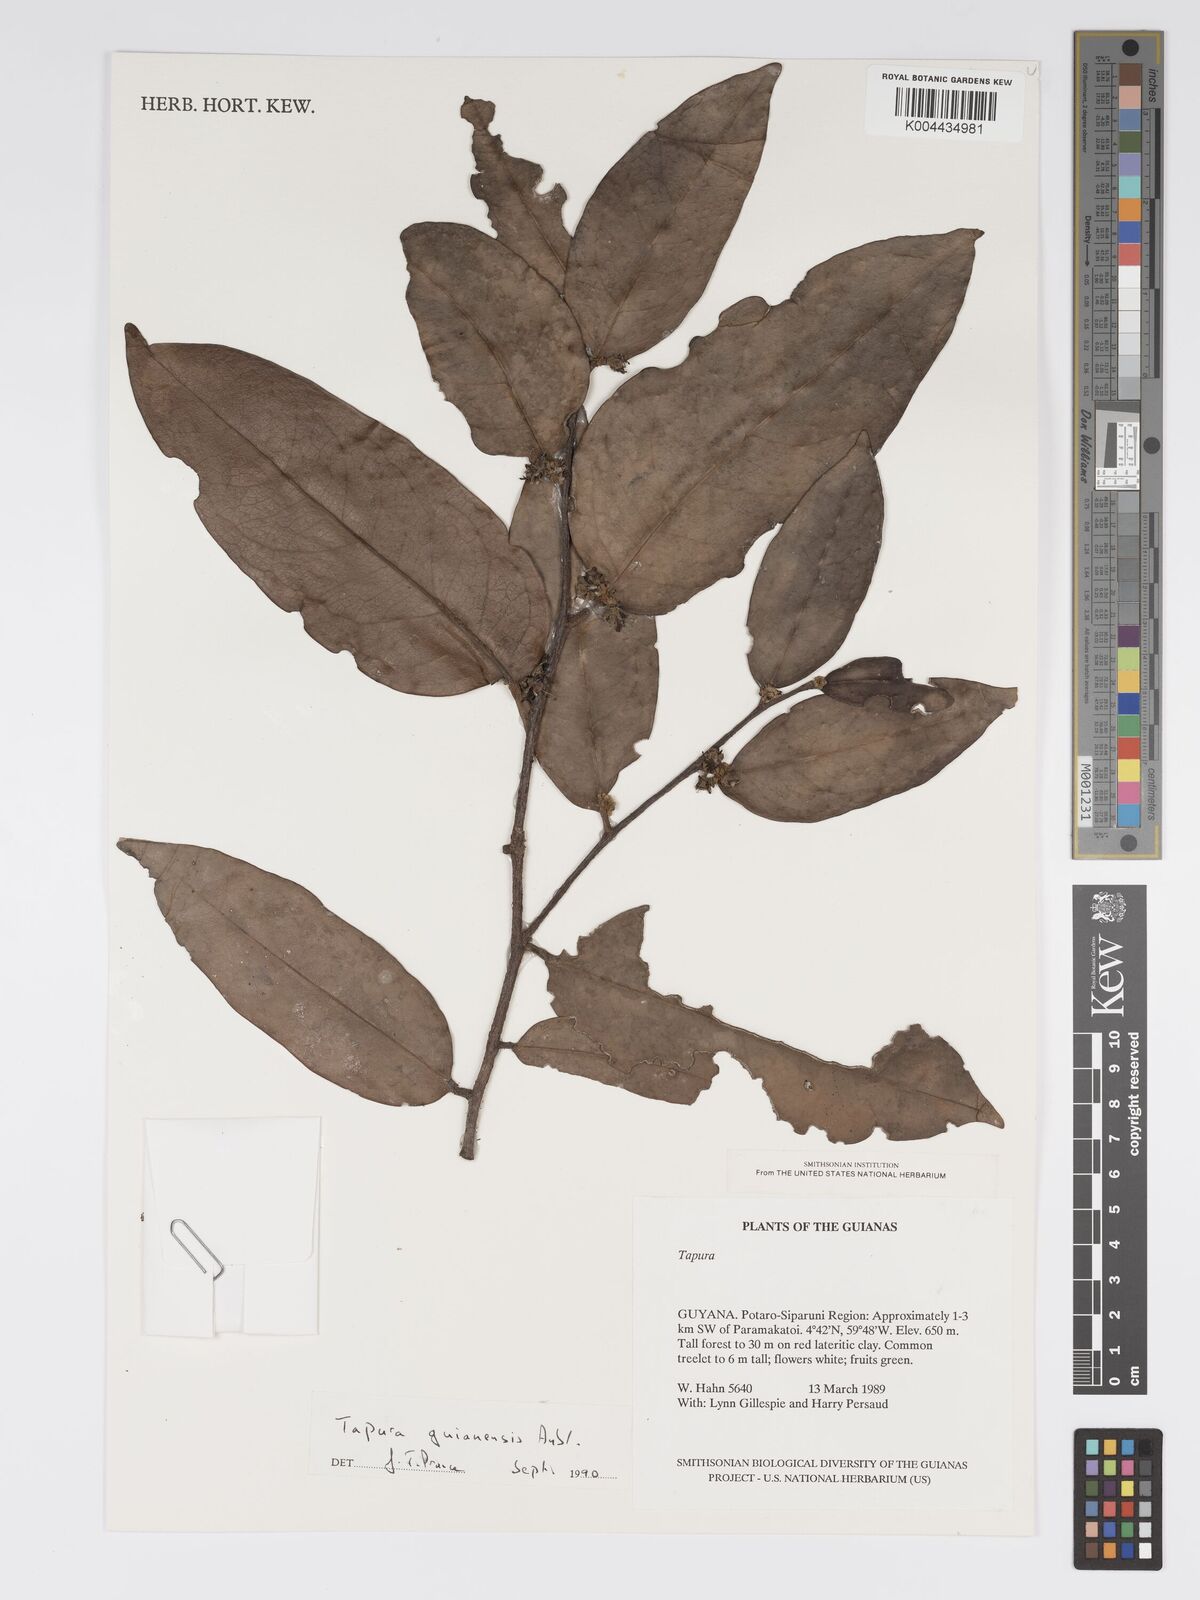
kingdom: Plantae
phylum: Tracheophyta
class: Magnoliopsida
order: Malpighiales
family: Dichapetalaceae
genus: Tapura
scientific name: Tapura guianensis
